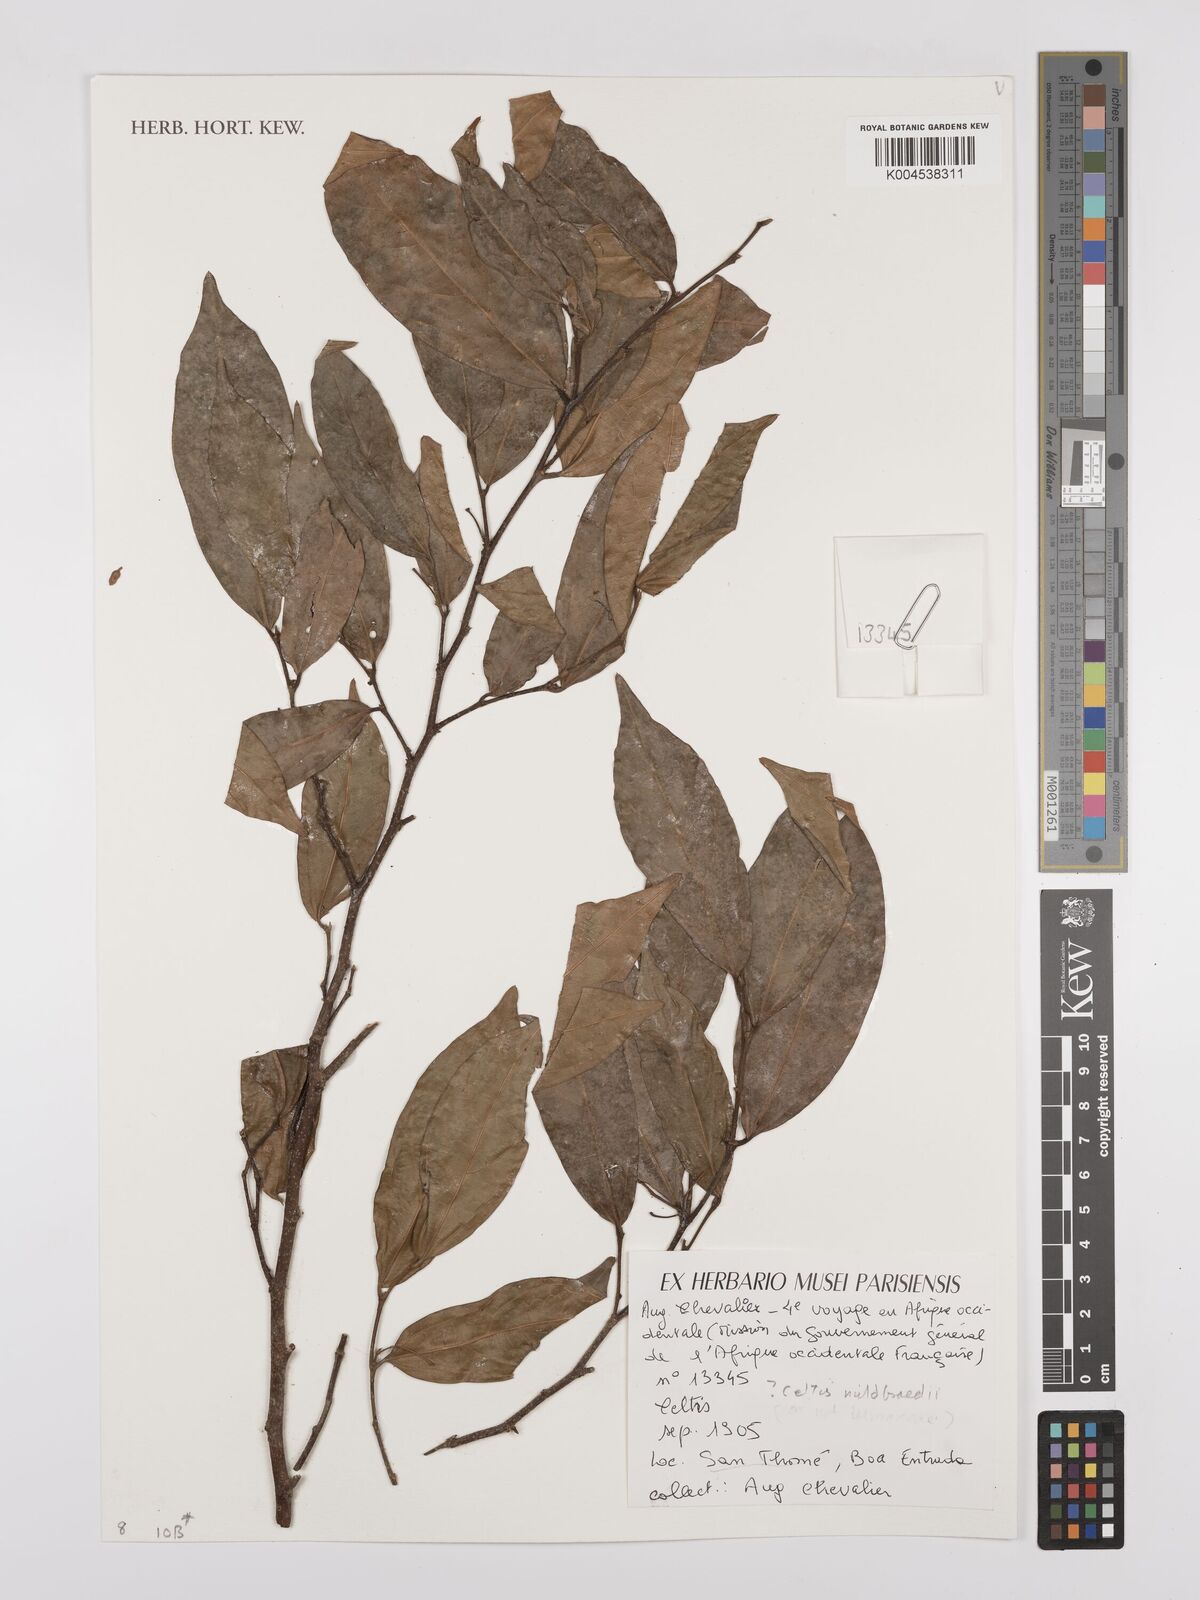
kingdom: Plantae
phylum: Tracheophyta
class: Magnoliopsida
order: Rosales
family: Cannabaceae
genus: Celtis
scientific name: Celtis mildbraedii
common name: Red-fruited stinkwood
